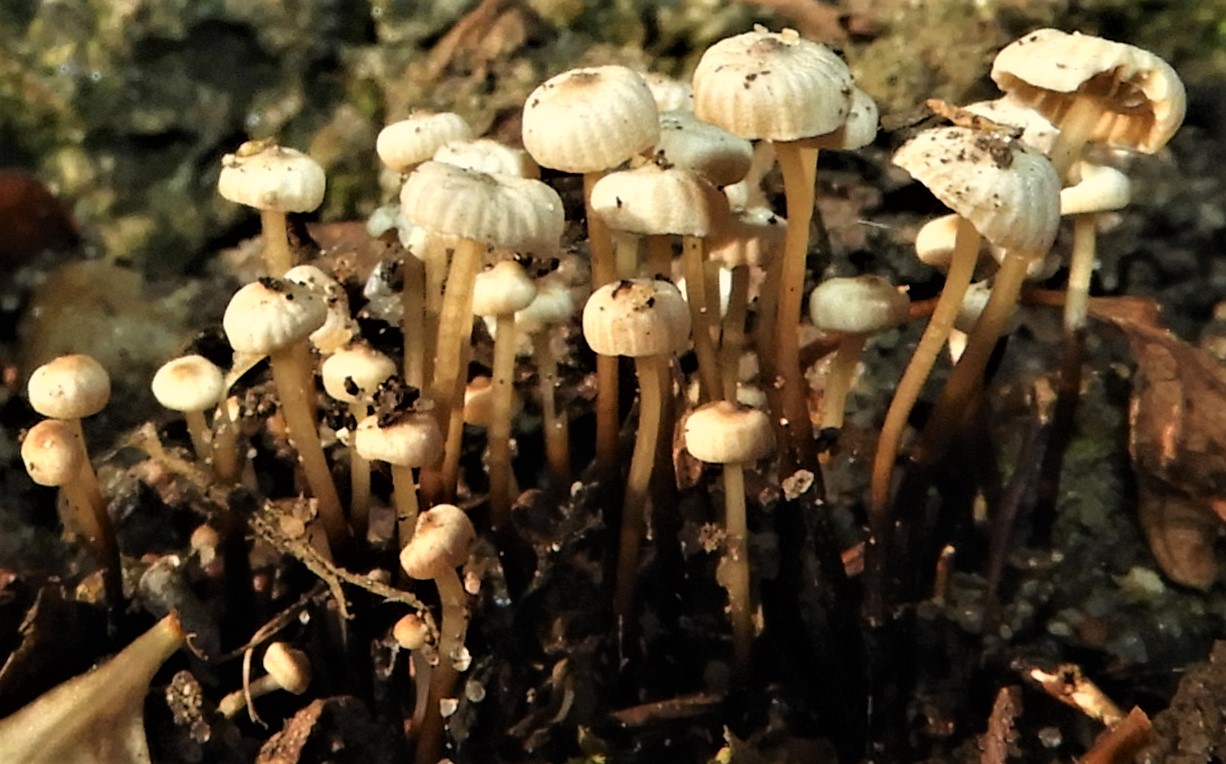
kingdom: Fungi
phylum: Basidiomycota
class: Agaricomycetes
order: Agaricales
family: Marasmiaceae
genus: Marasmius
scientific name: Marasmius rotula
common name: hjul-bruskhat
